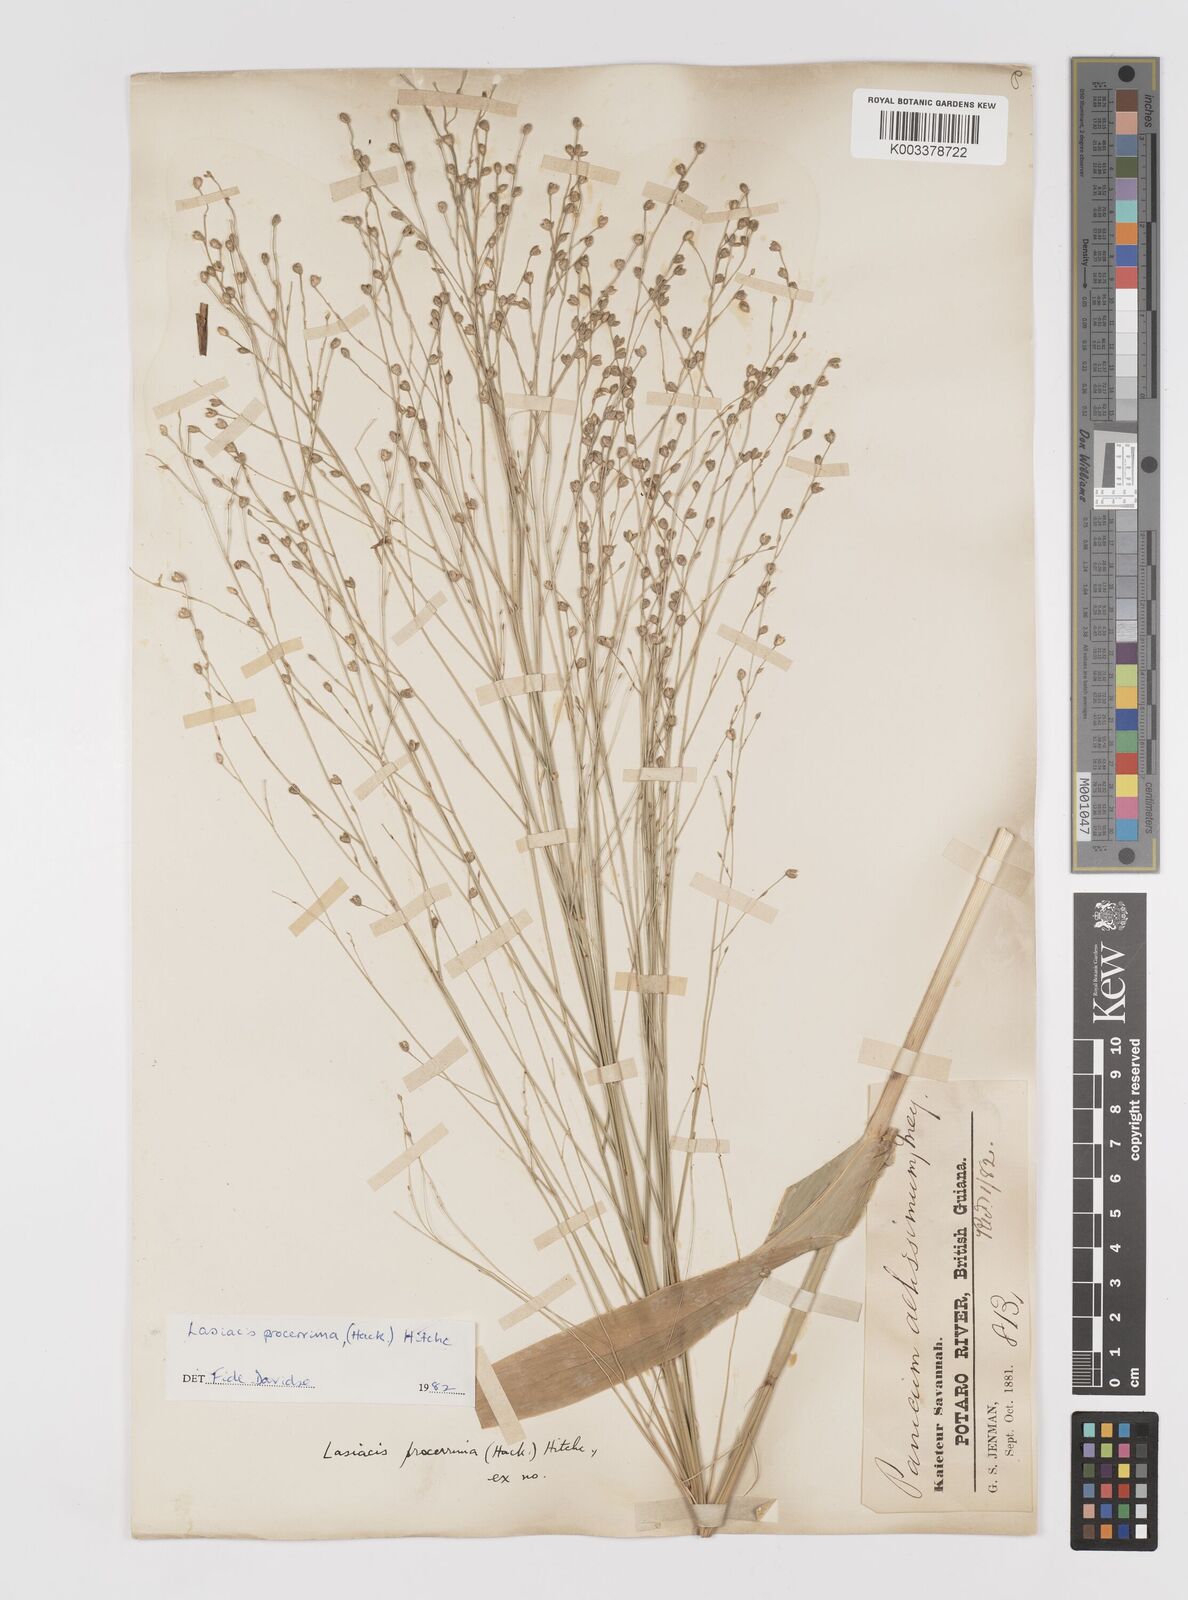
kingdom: Plantae
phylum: Tracheophyta
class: Liliopsida
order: Poales
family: Poaceae
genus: Lasiacis
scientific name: Lasiacis procerrima
